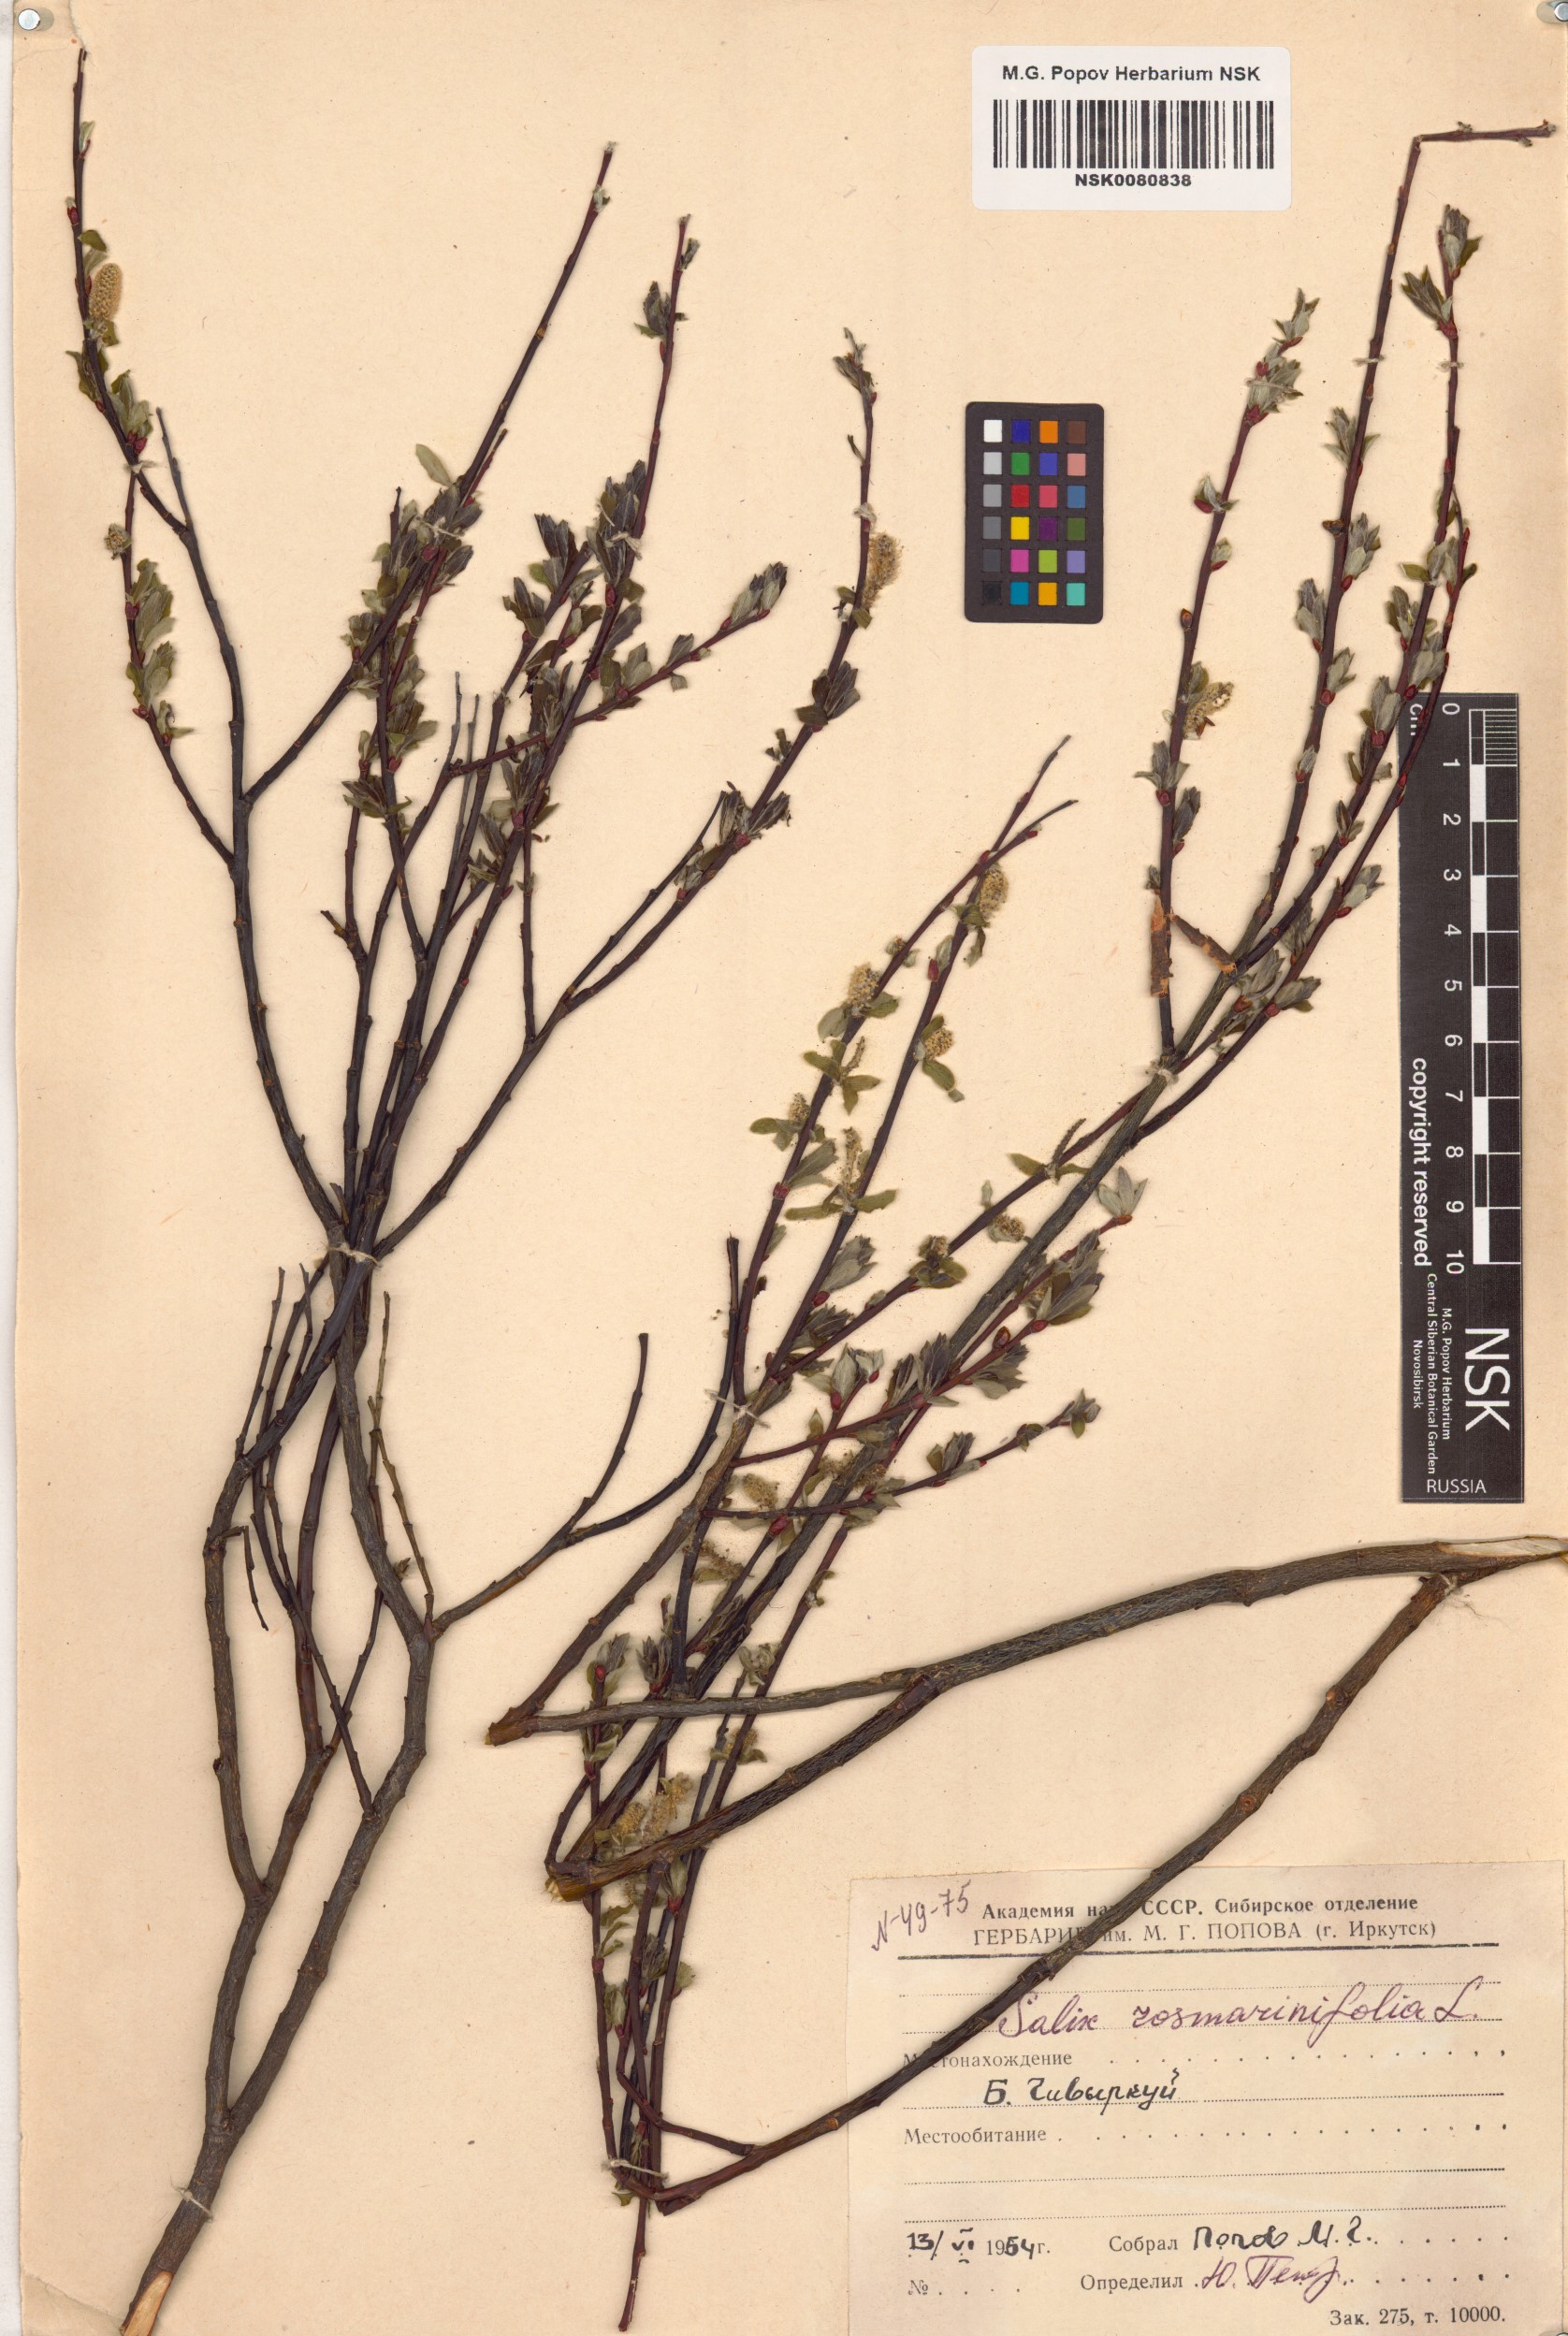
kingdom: Plantae
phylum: Tracheophyta
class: Magnoliopsida
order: Malpighiales
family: Salicaceae
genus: Salix
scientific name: Salix rosmarinifolia
